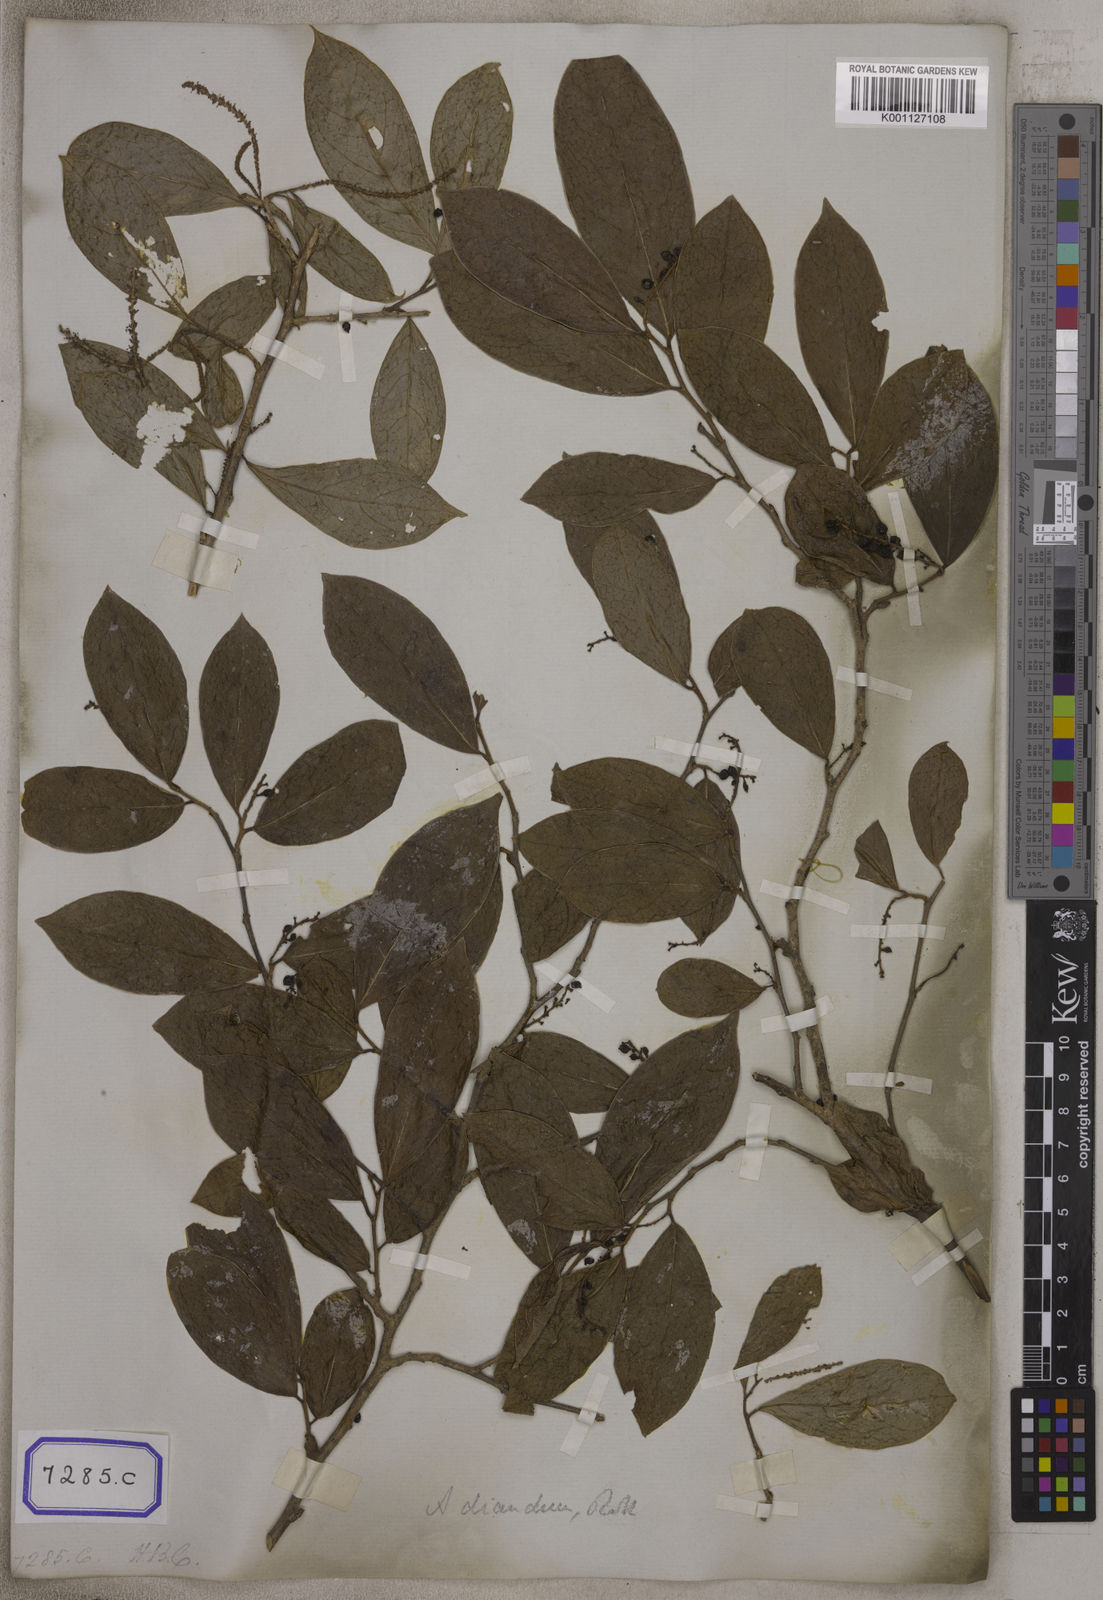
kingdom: Plantae
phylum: Tracheophyta
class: Magnoliopsida
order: Malpighiales
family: Phyllanthaceae
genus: Antidesma
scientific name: Antidesma
